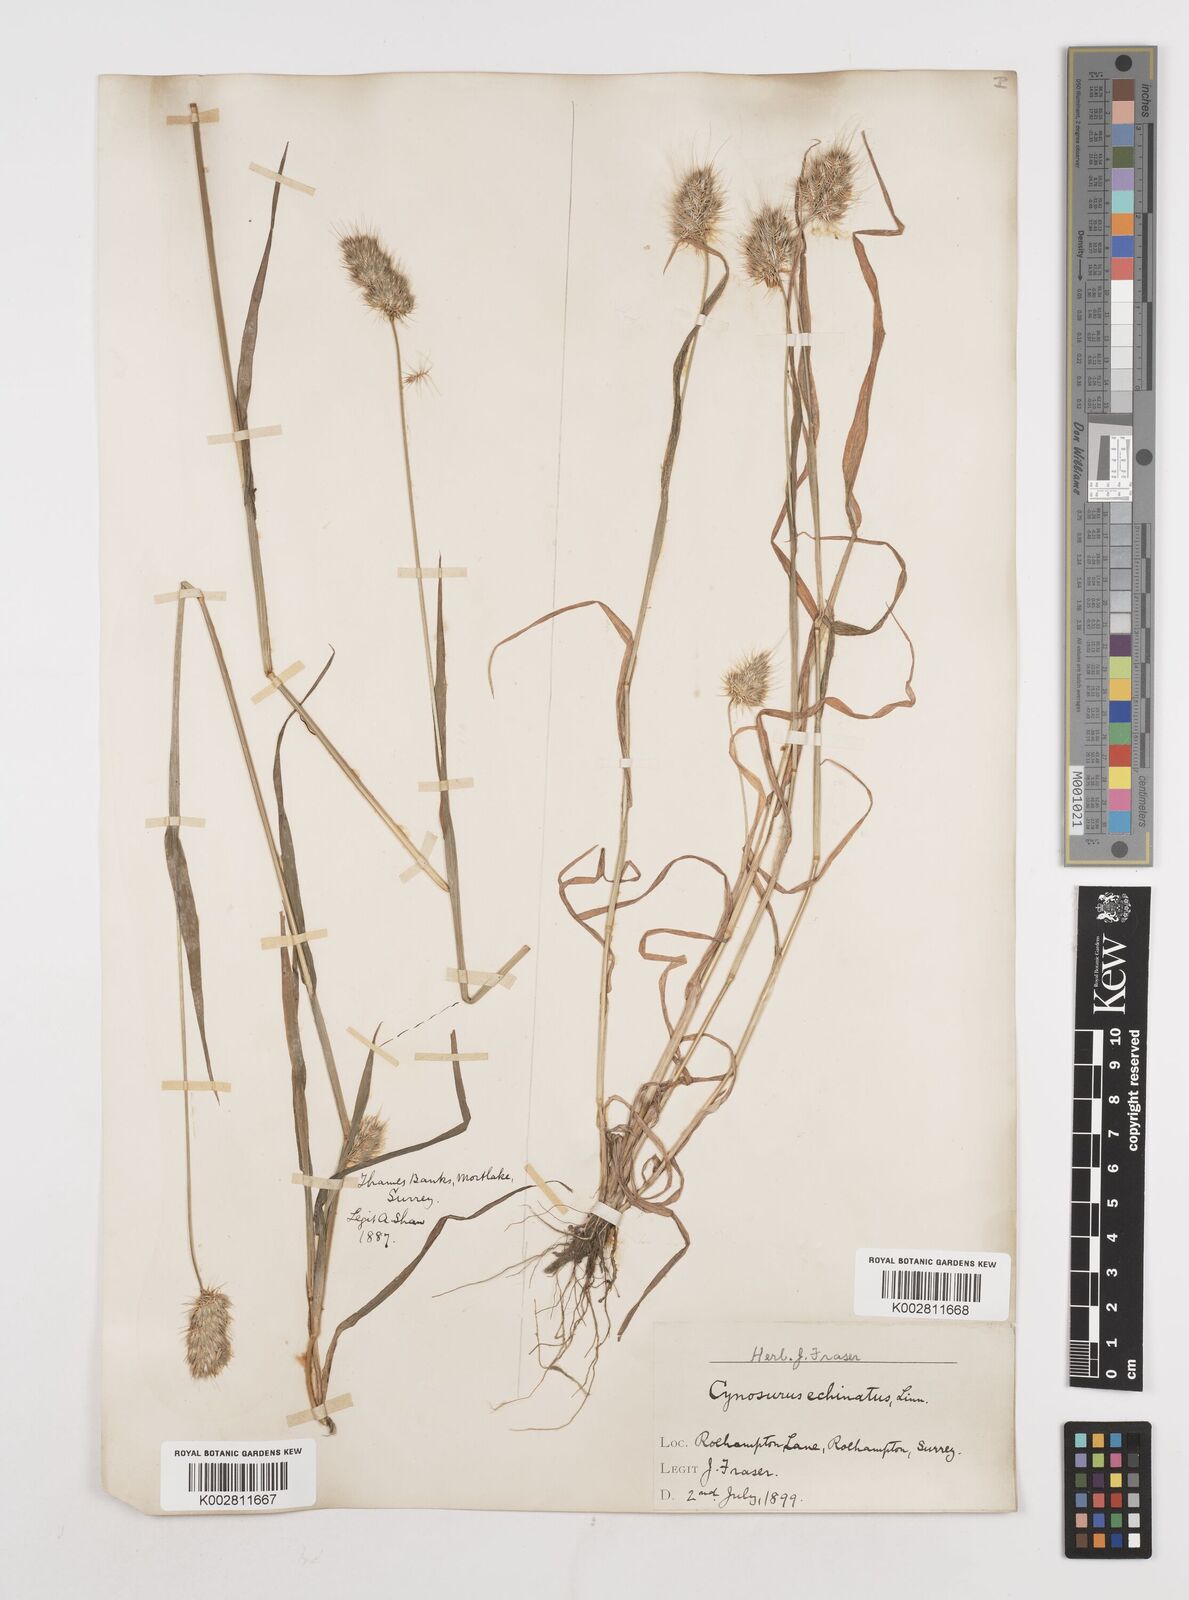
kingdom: Plantae
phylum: Tracheophyta
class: Liliopsida
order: Poales
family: Poaceae
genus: Cynosurus
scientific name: Cynosurus echinatus
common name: Rough dog's-tail
